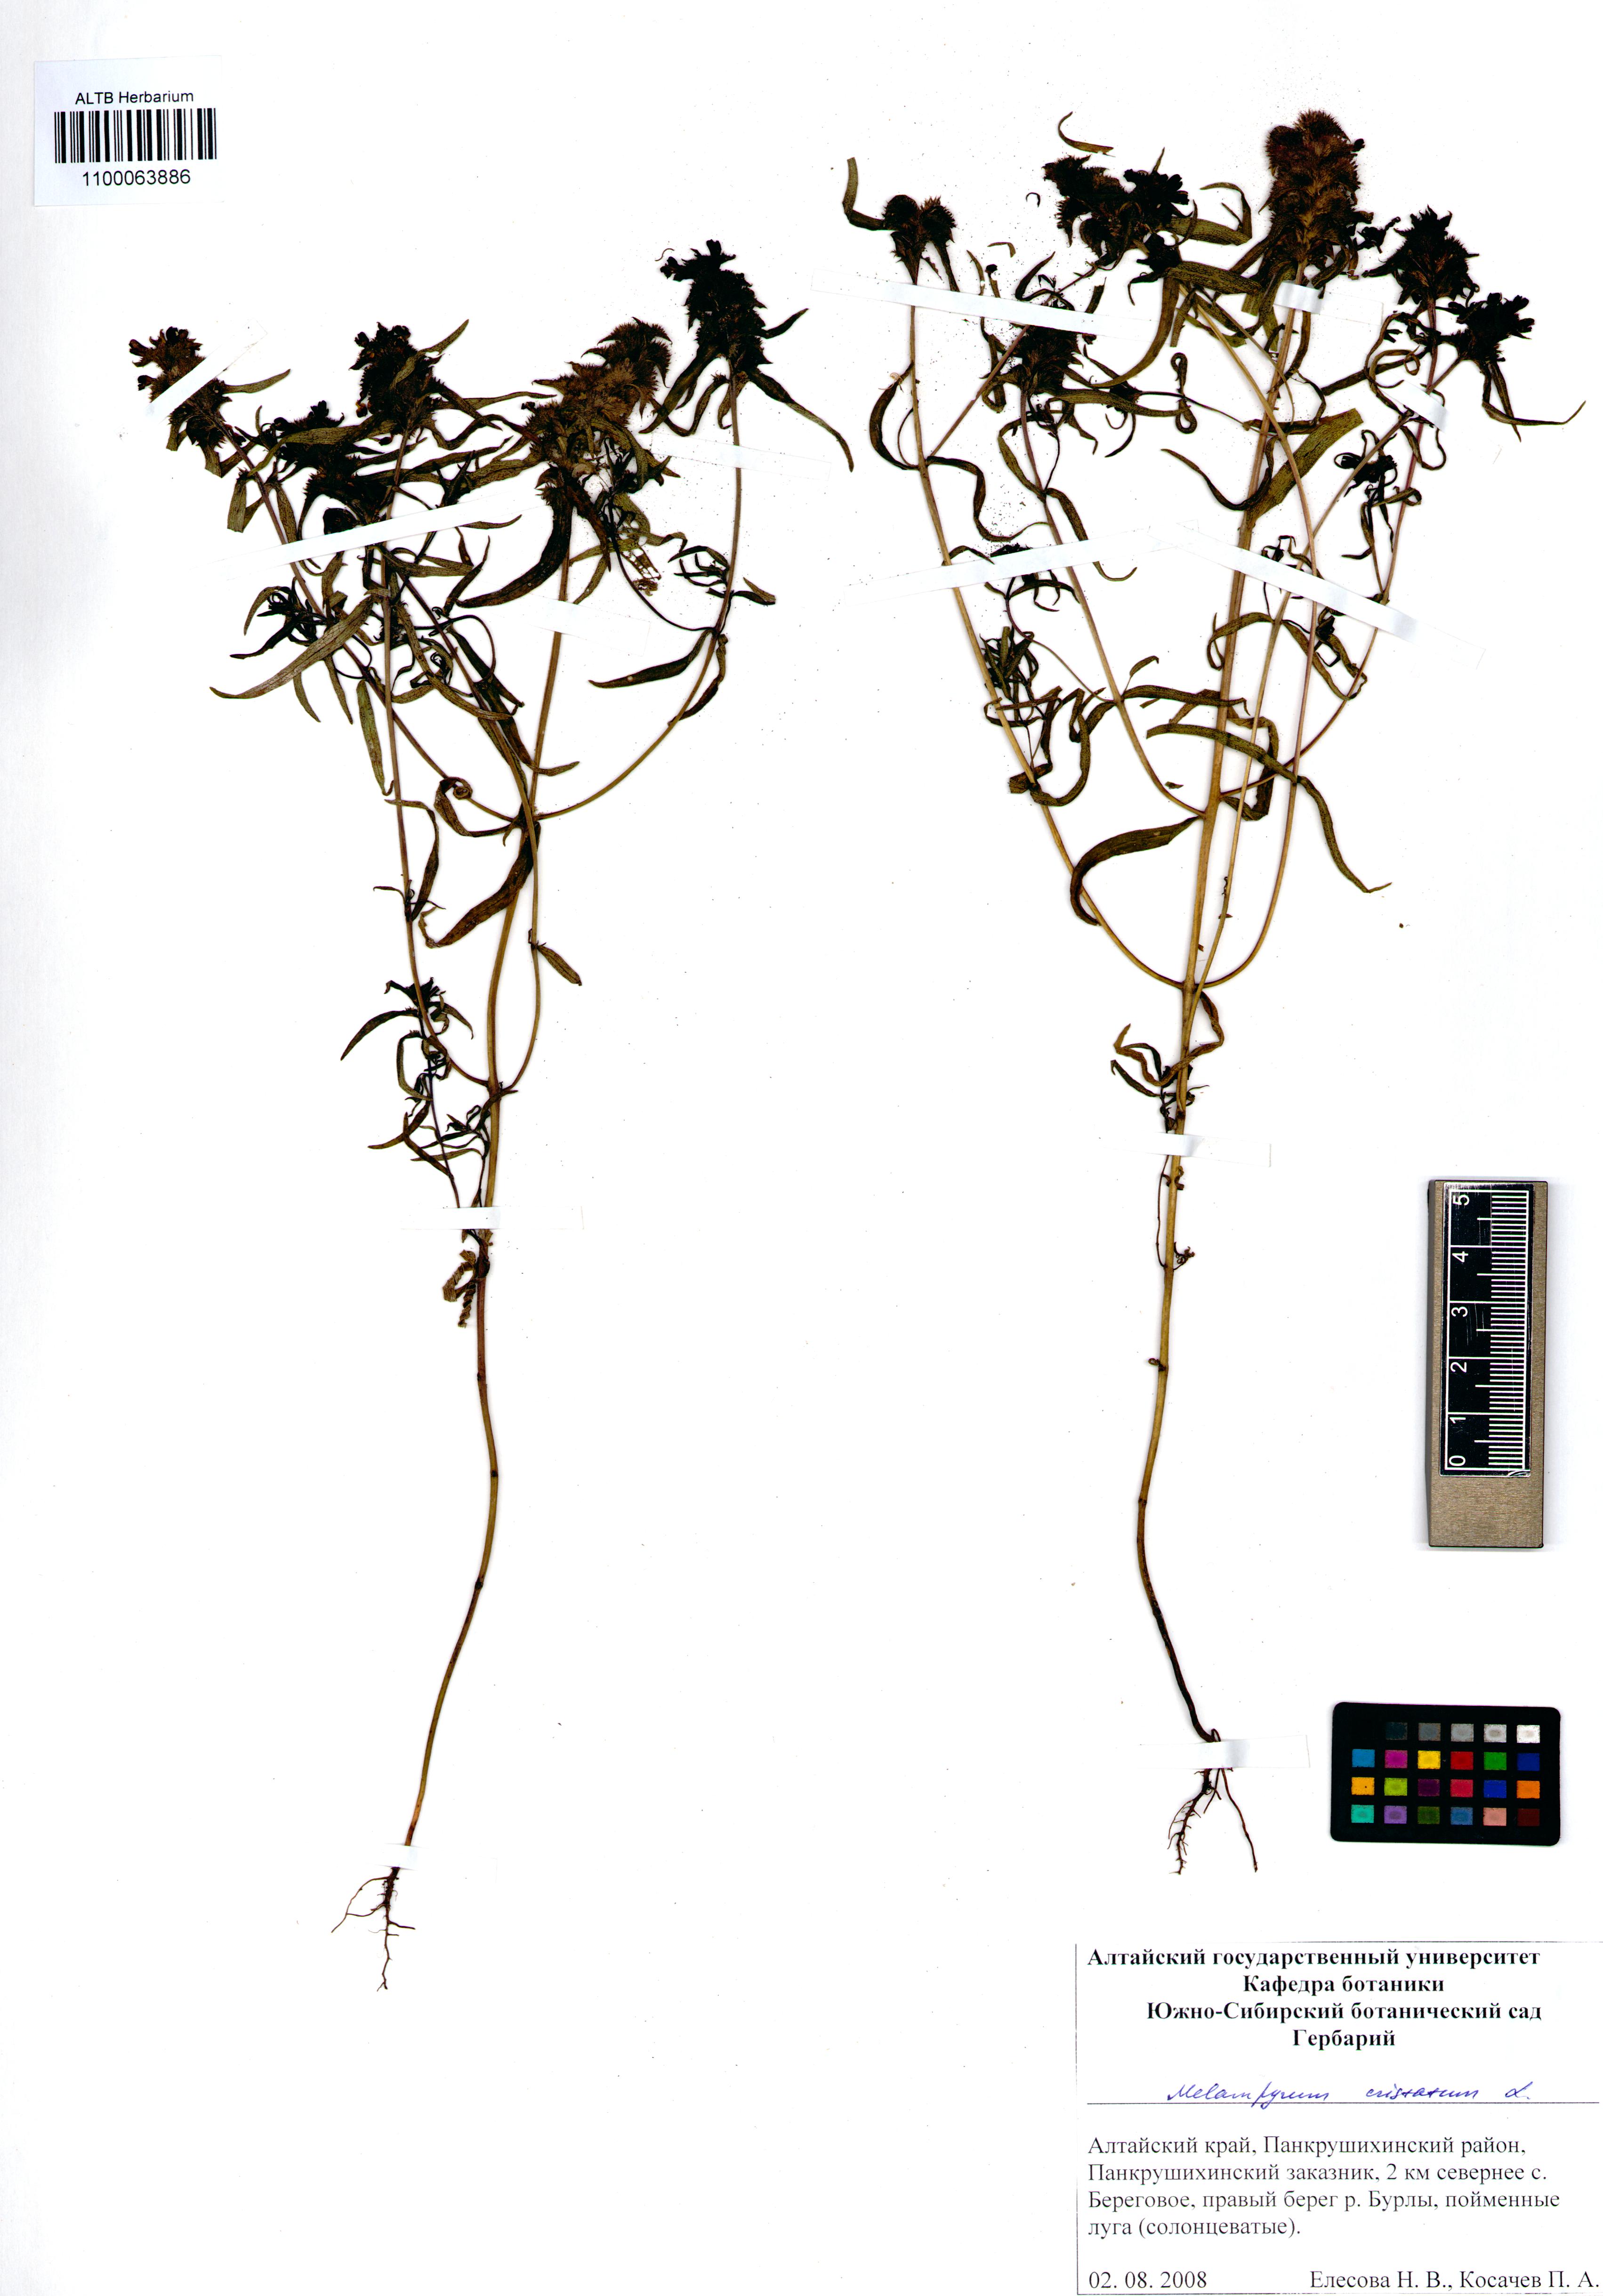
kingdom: Plantae
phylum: Tracheophyta
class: Magnoliopsida
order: Lamiales
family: Orobanchaceae
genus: Melampyrum
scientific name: Melampyrum cristatum
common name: Crested cow-wheat
